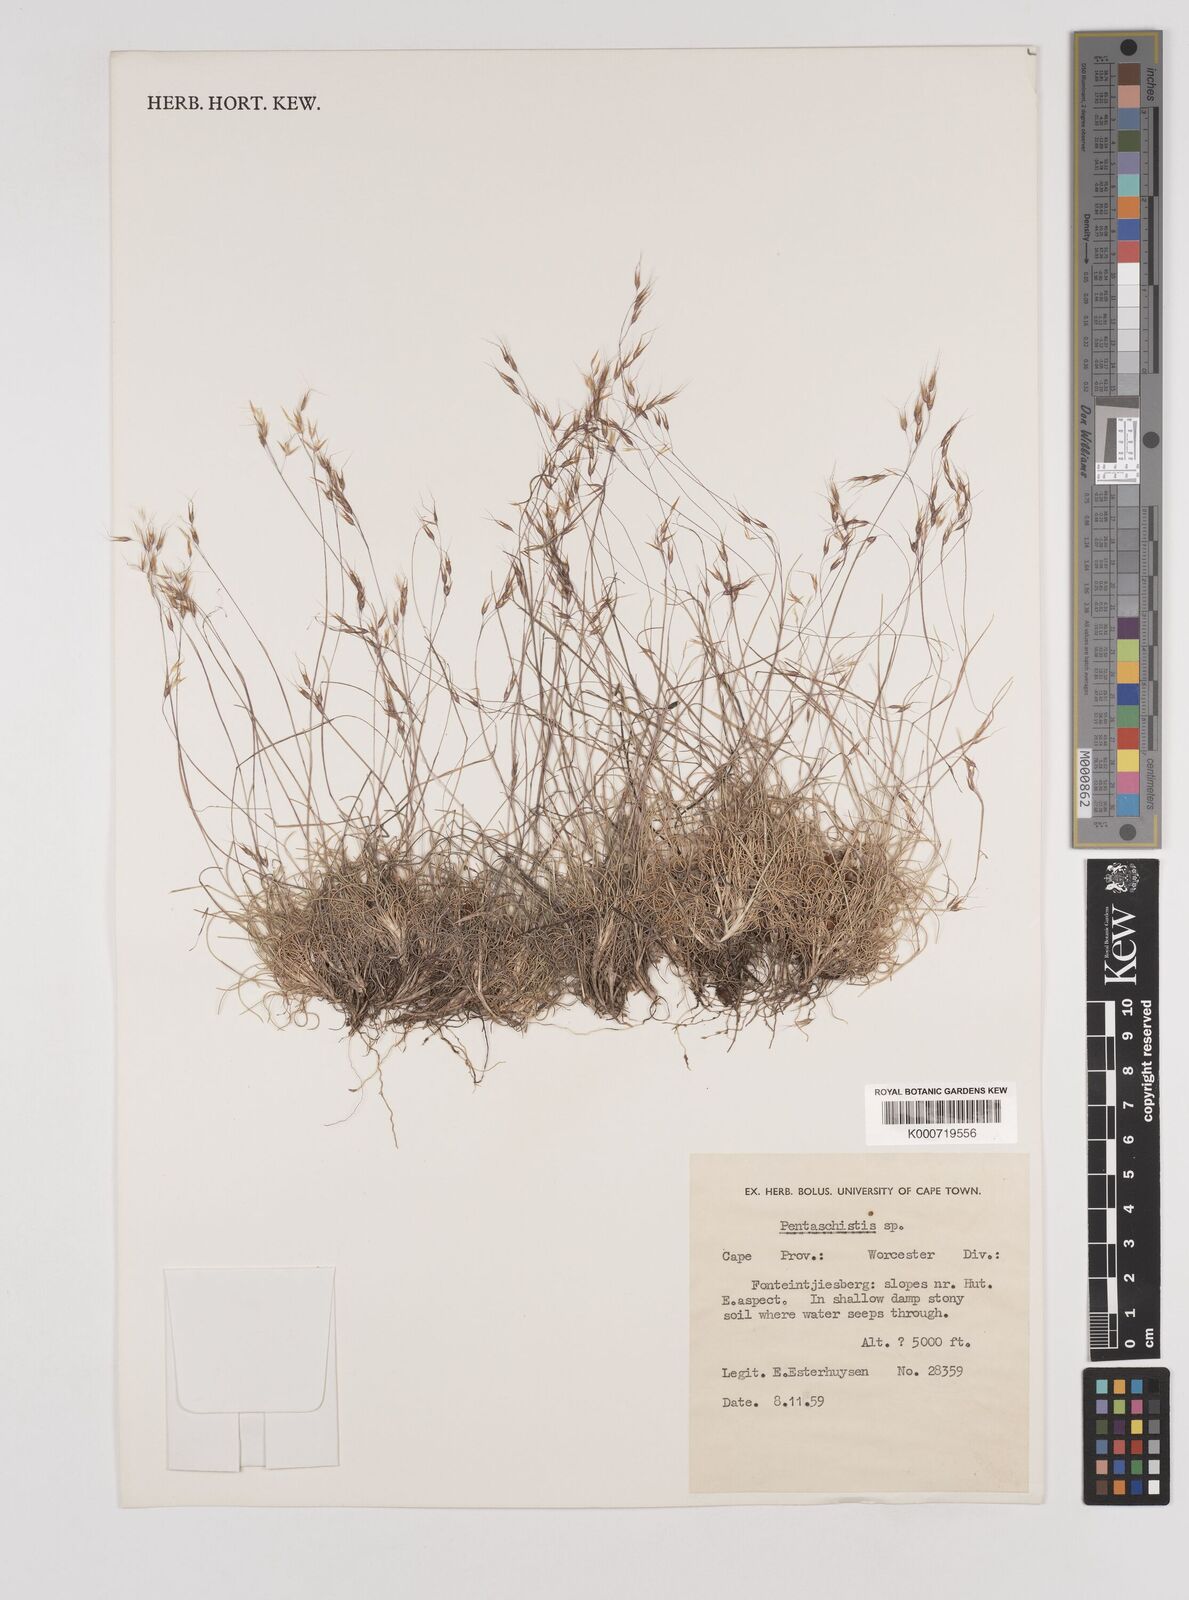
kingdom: Plantae
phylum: Tracheophyta
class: Liliopsida
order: Poales
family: Poaceae
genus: Pentameris
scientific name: Pentameris alticola
